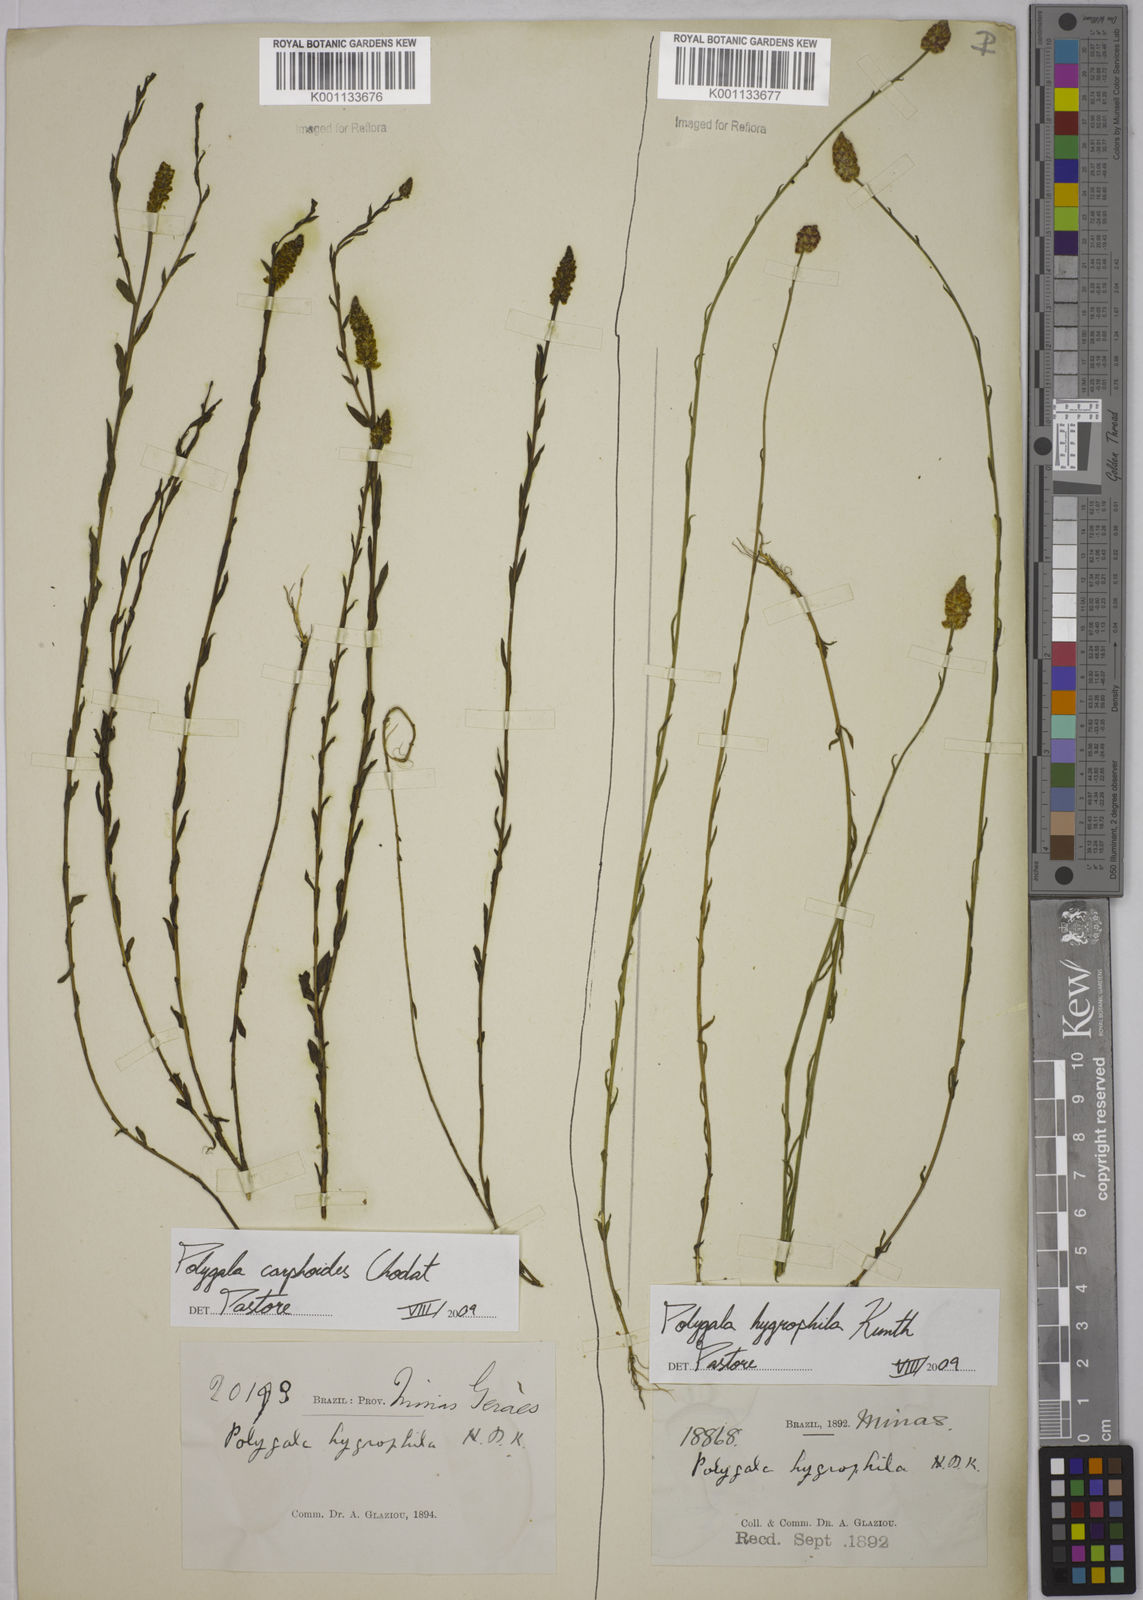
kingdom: Plantae
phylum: Tracheophyta
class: Magnoliopsida
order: Fabales
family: Polygalaceae
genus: Polygala
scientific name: Polygala carphoides
